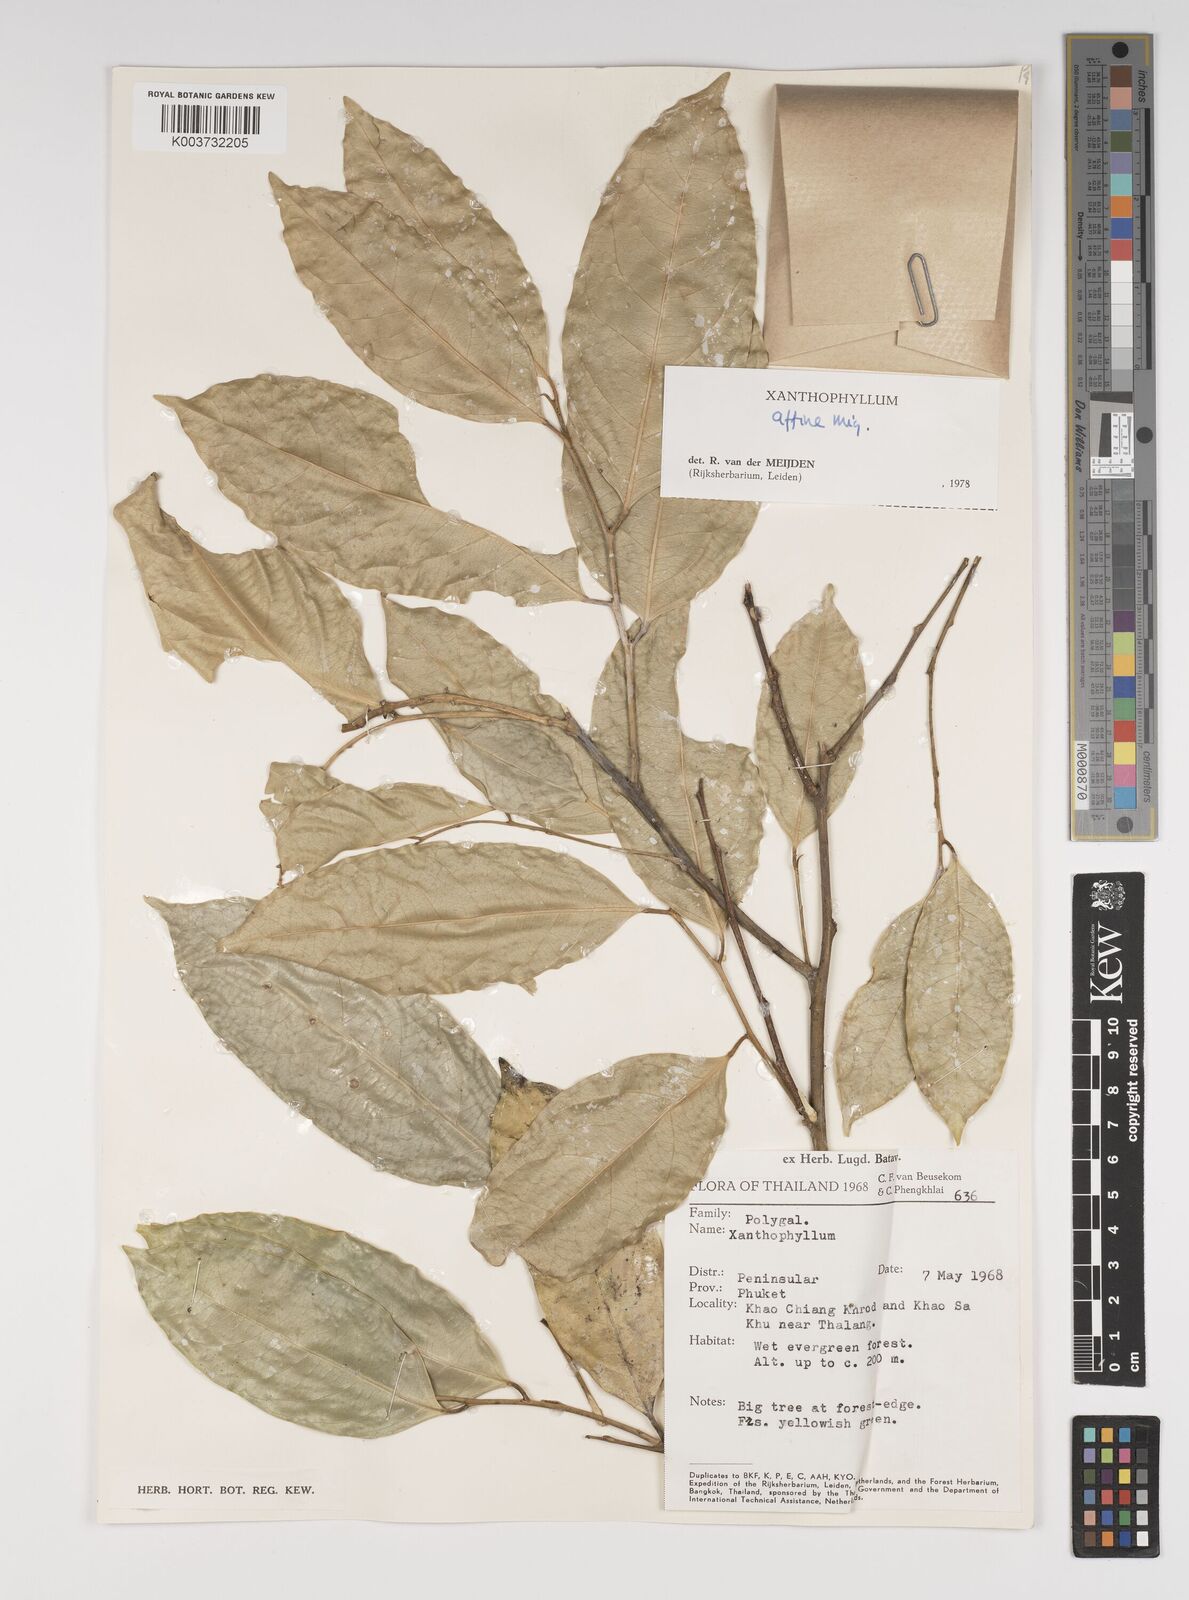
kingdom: Plantae
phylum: Tracheophyta
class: Magnoliopsida
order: Fabales
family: Polygalaceae
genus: Xanthophyllum
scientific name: Xanthophyllum flavescens
